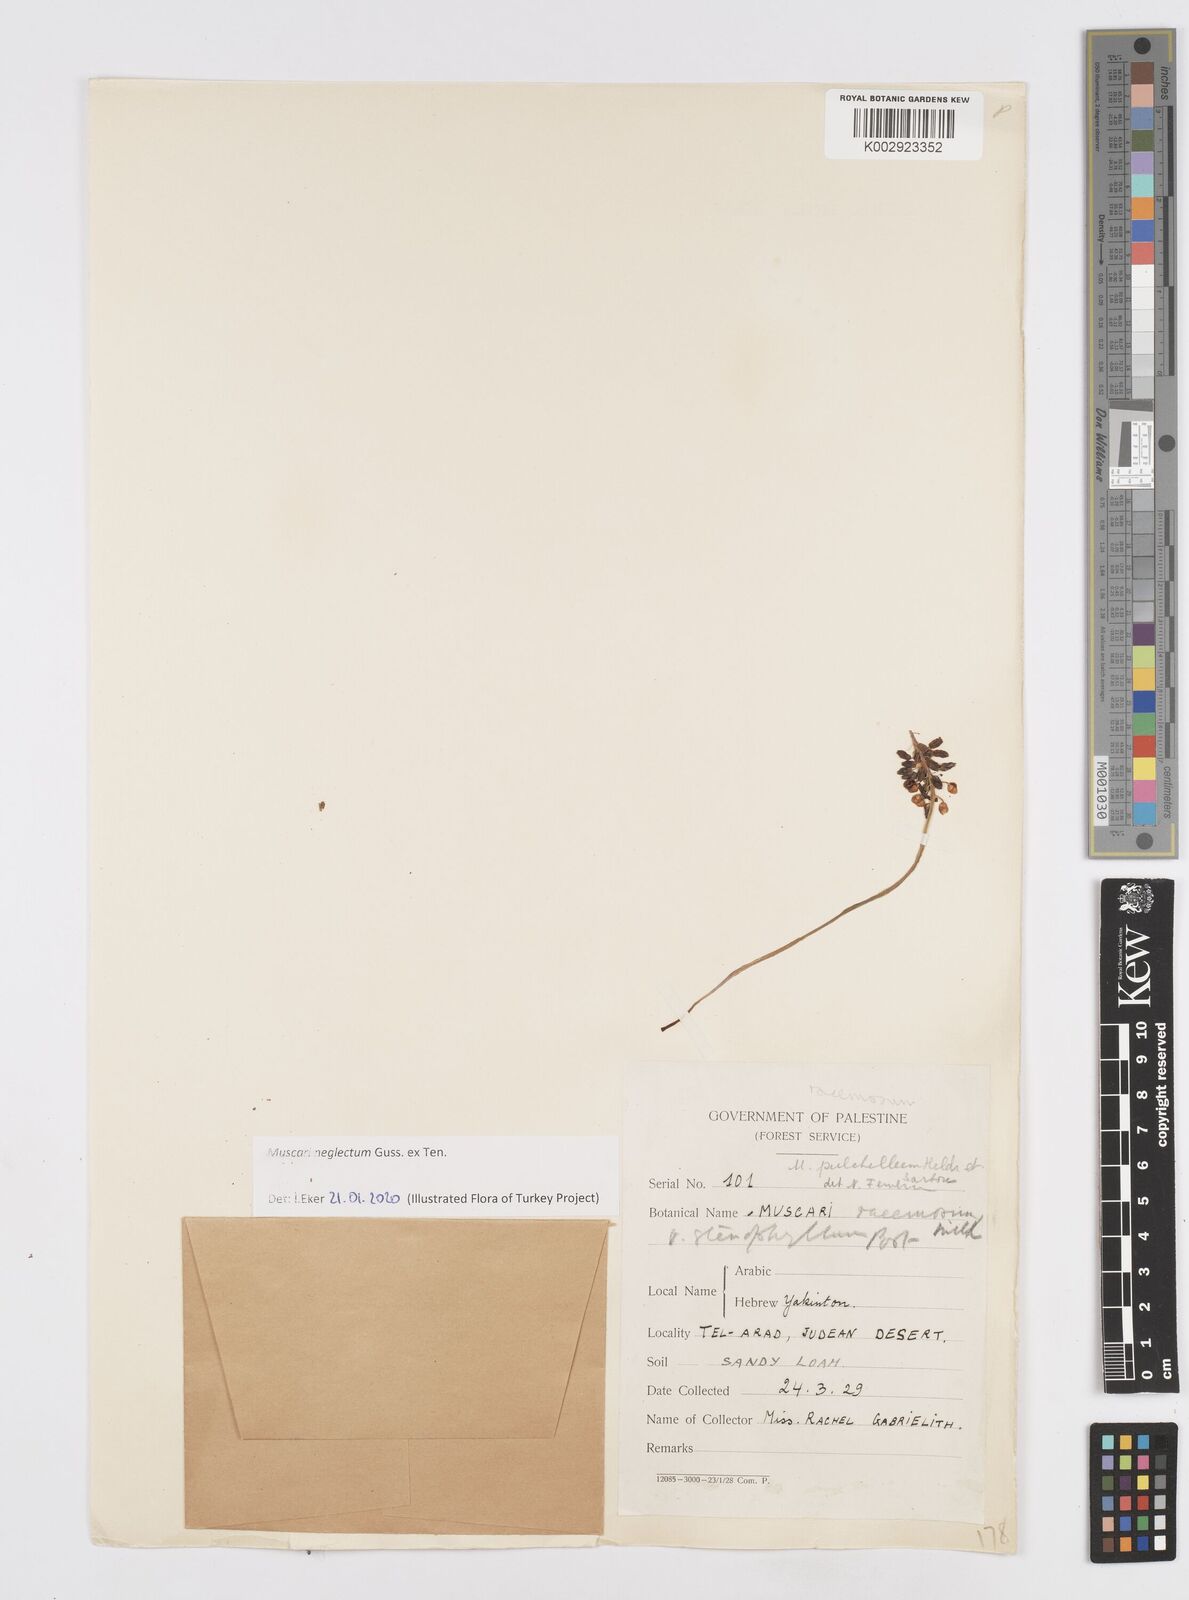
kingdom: Plantae
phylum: Tracheophyta
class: Liliopsida
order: Asparagales
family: Asparagaceae
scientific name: Asparagaceae
